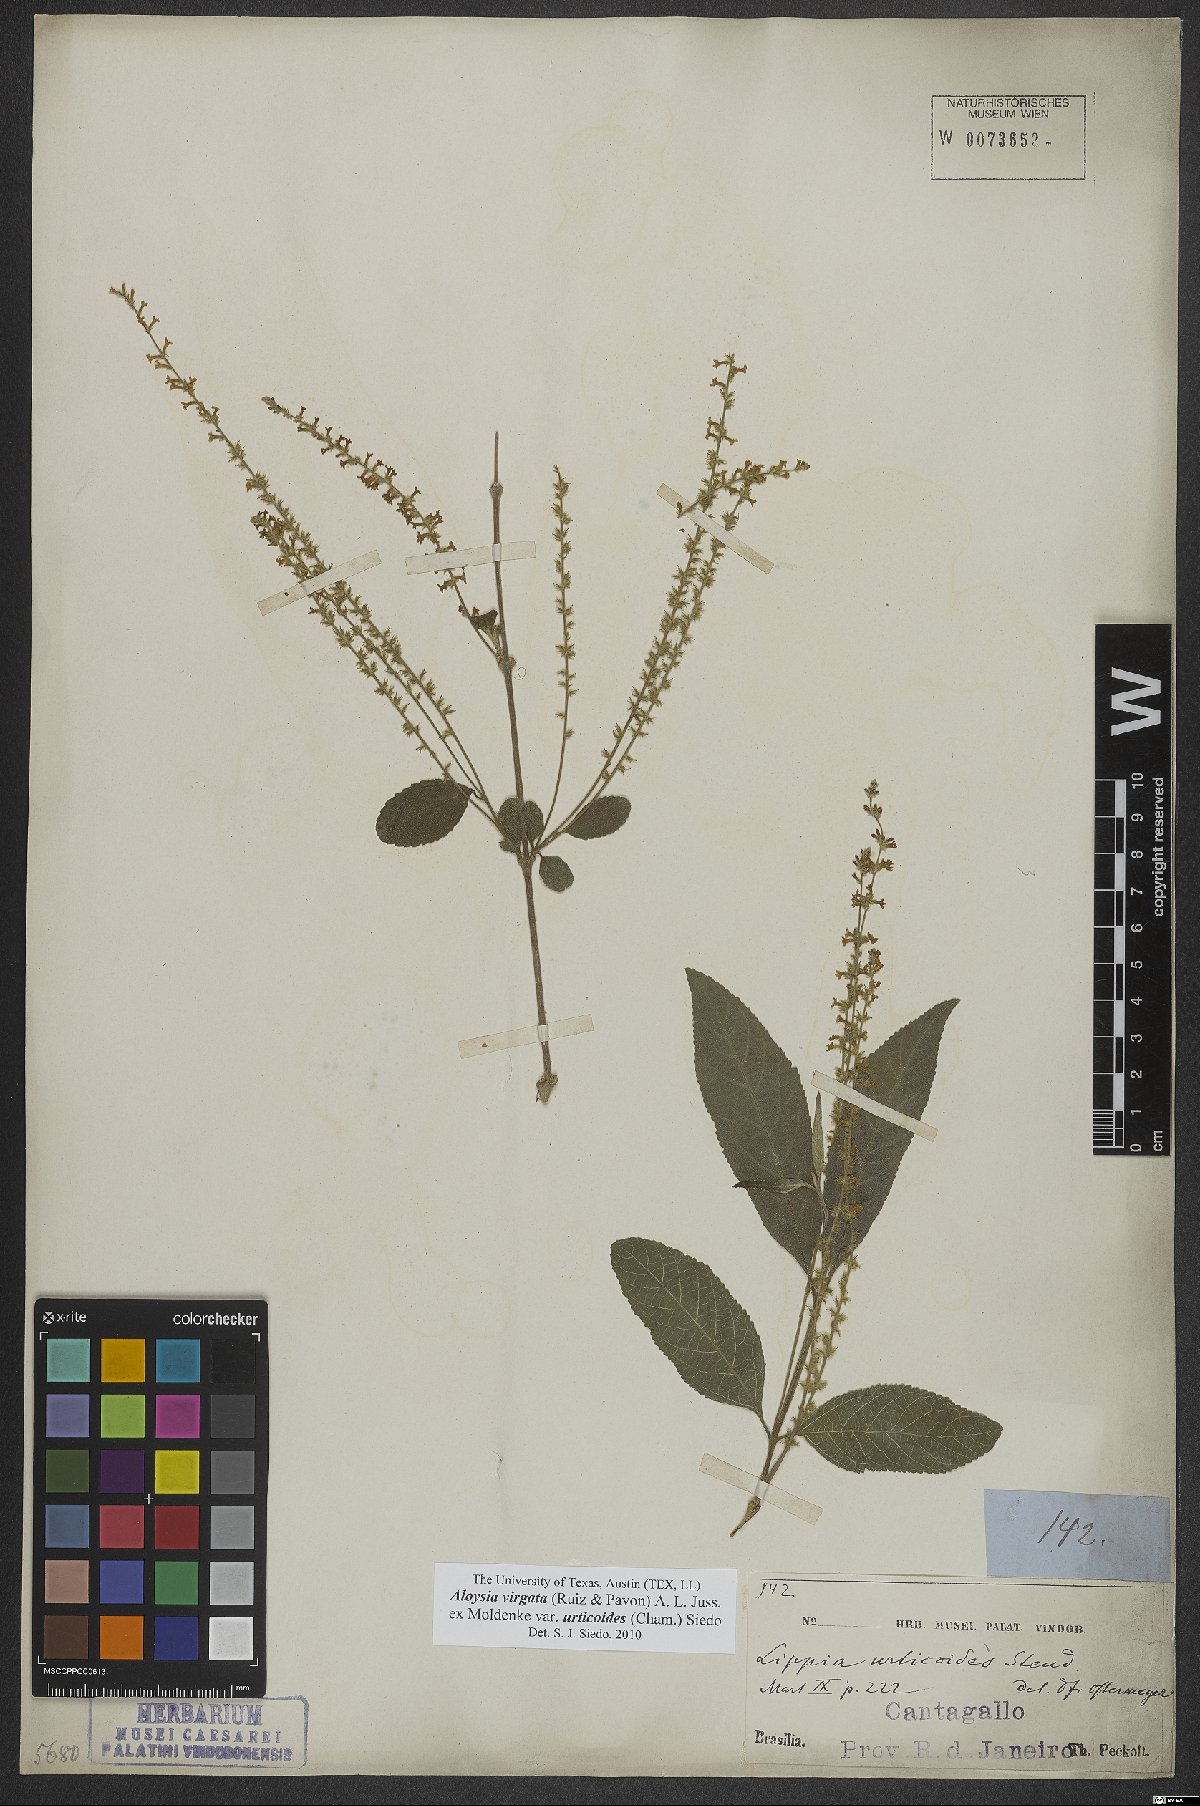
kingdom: Plantae
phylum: Tracheophyta
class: Magnoliopsida
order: Lamiales
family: Verbenaceae
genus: Aloysia
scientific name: Aloysia virgata
